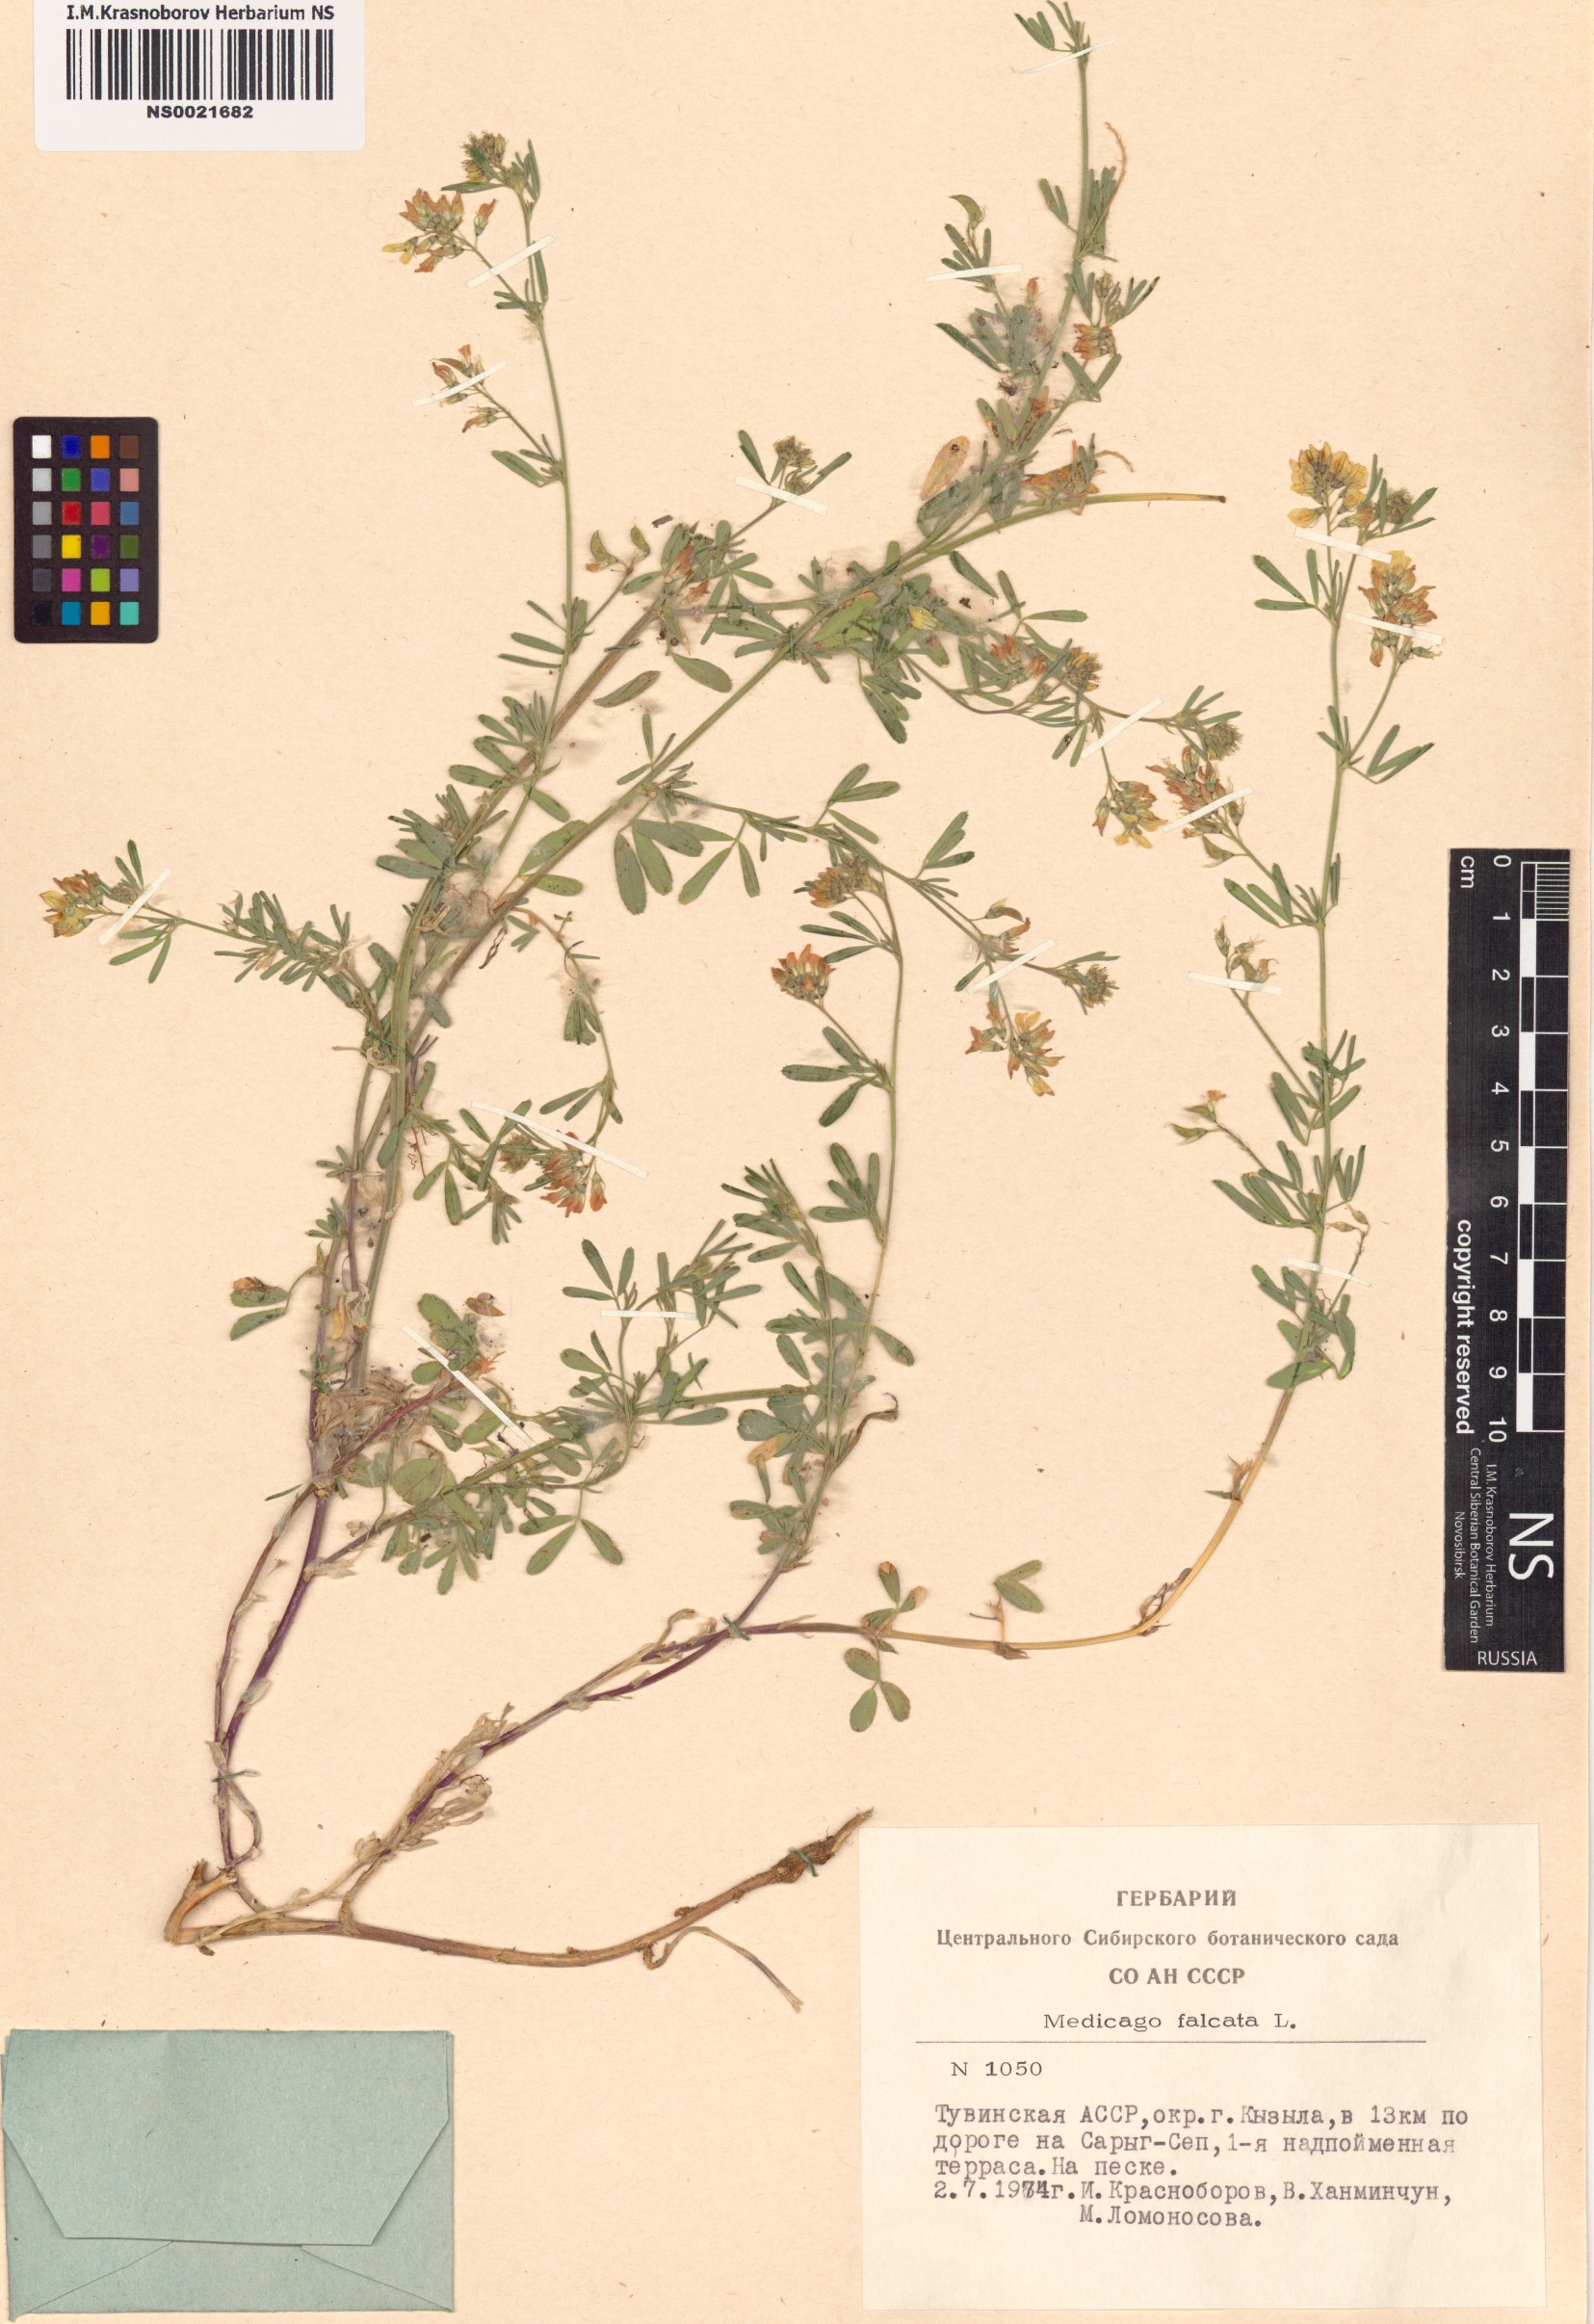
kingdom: Plantae
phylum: Tracheophyta
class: Magnoliopsida
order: Fabales
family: Fabaceae
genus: Medicago
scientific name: Medicago falcata
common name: Sickle medick
